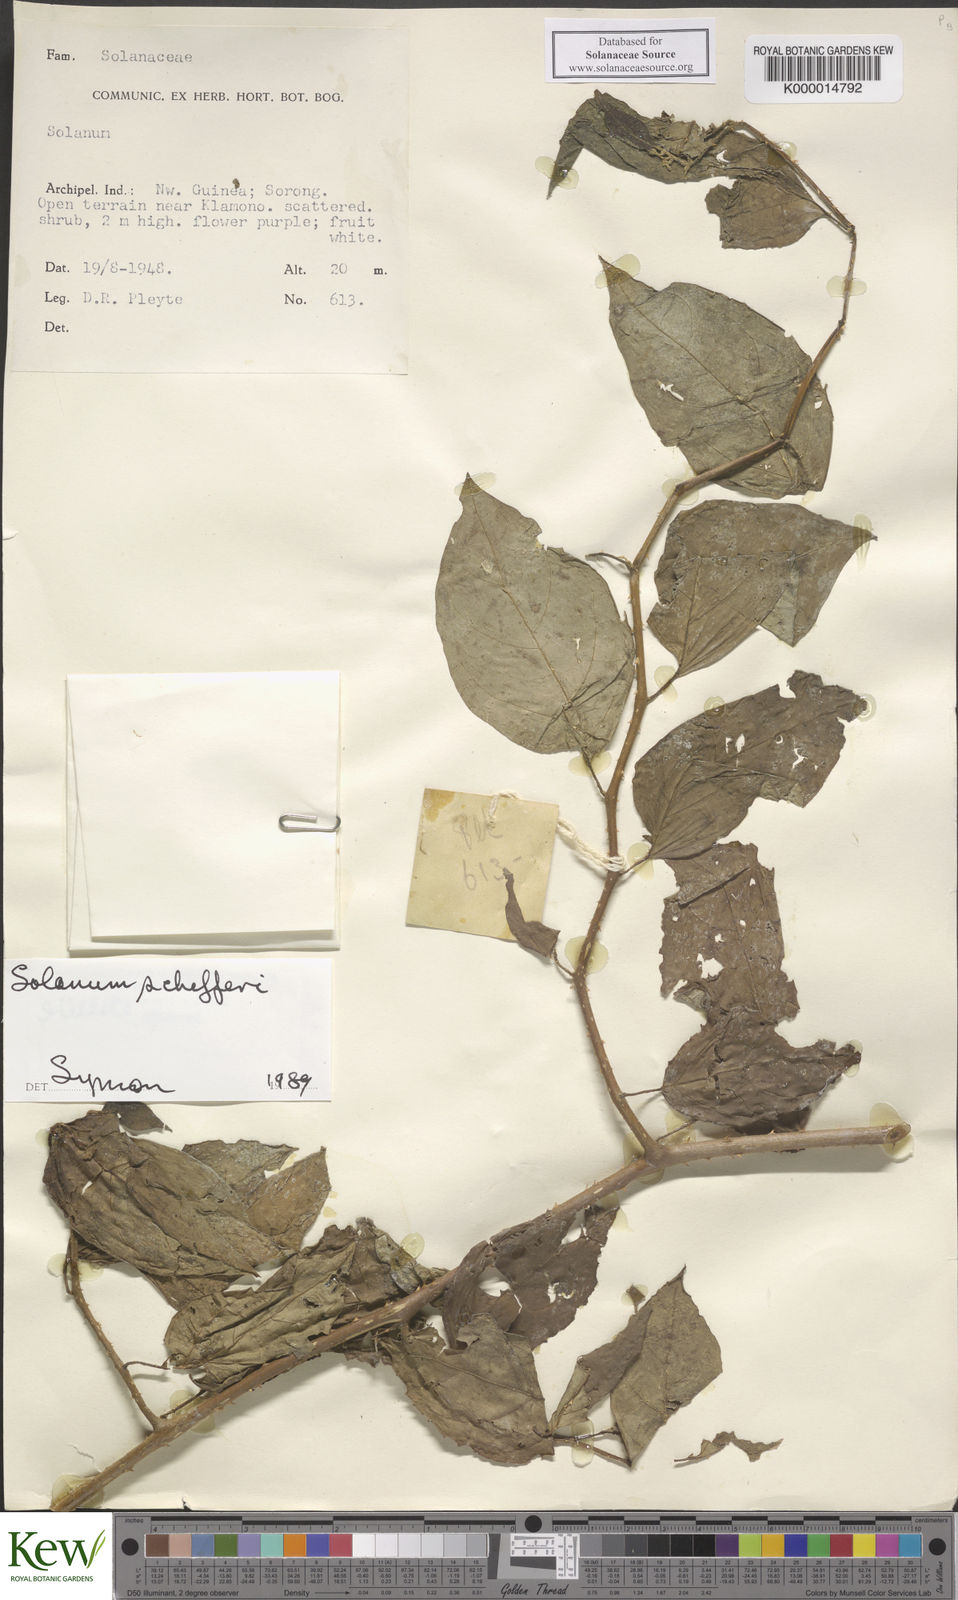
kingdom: Plantae
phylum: Tracheophyta
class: Magnoliopsida
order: Solanales
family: Solanaceae
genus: Solanum
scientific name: Solanum schefferi
